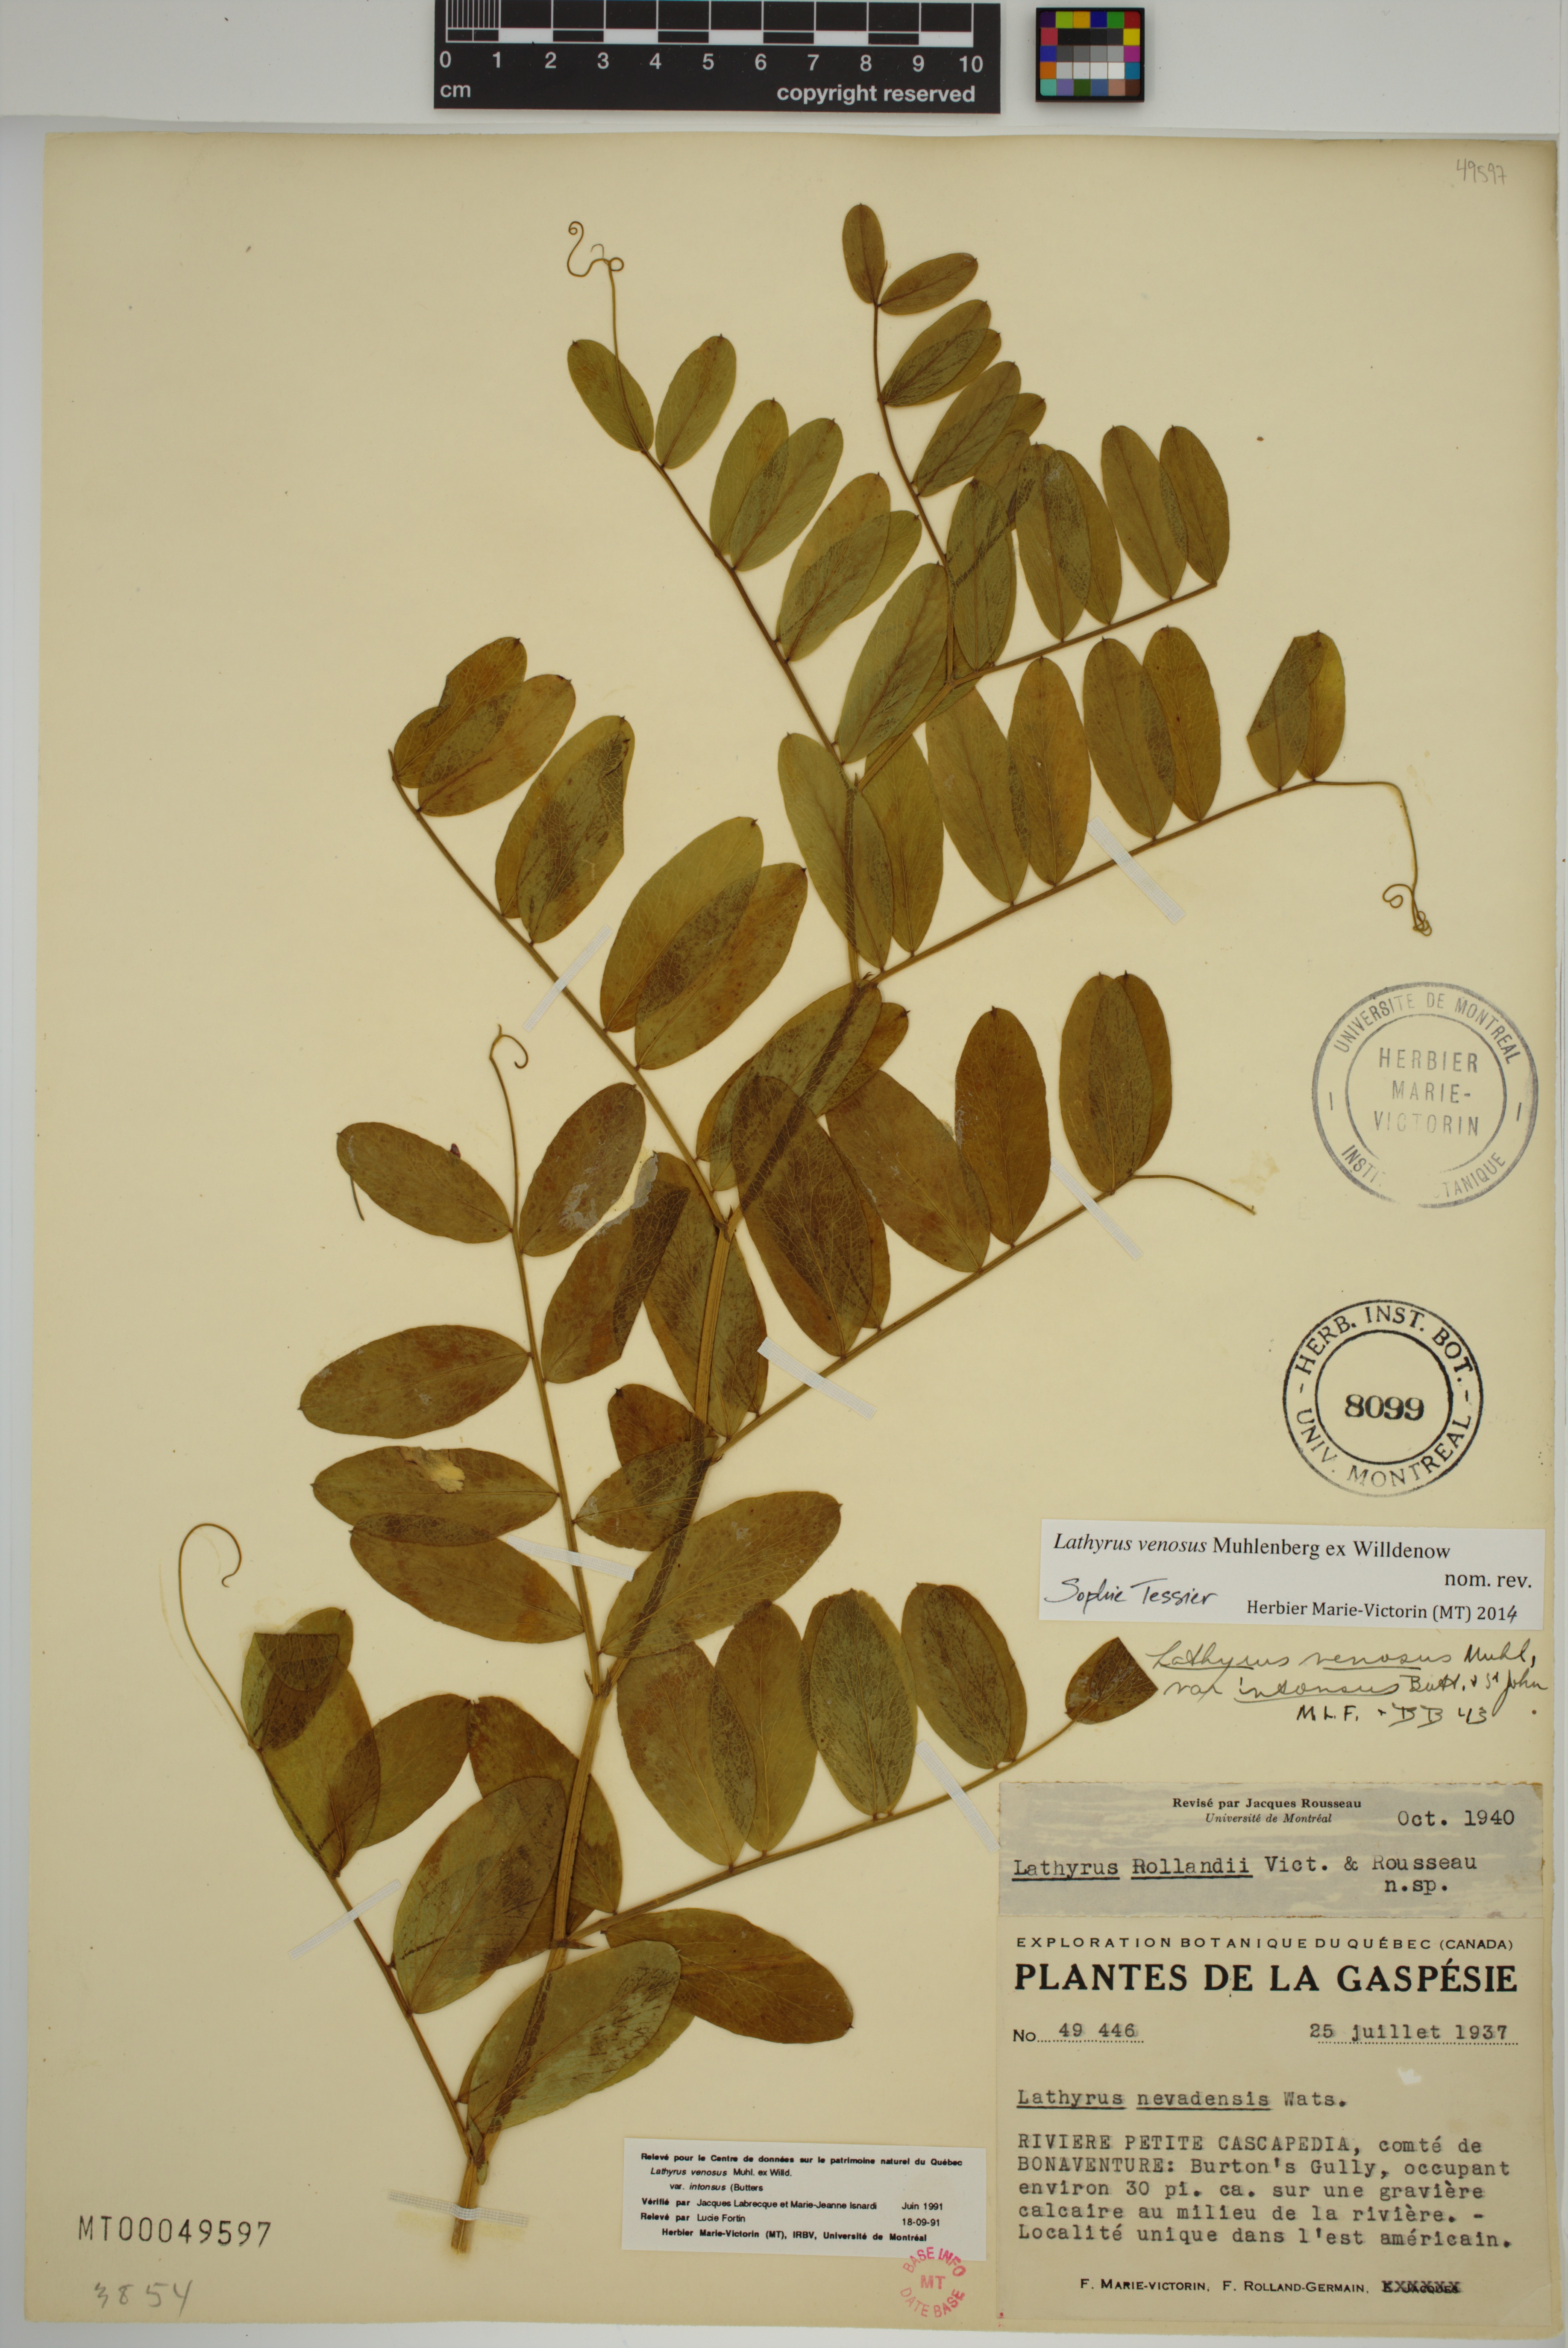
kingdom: Plantae
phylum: Tracheophyta
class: Magnoliopsida
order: Fabales
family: Fabaceae
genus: Lathyrus
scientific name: Lathyrus venosus
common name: Forest-pea
